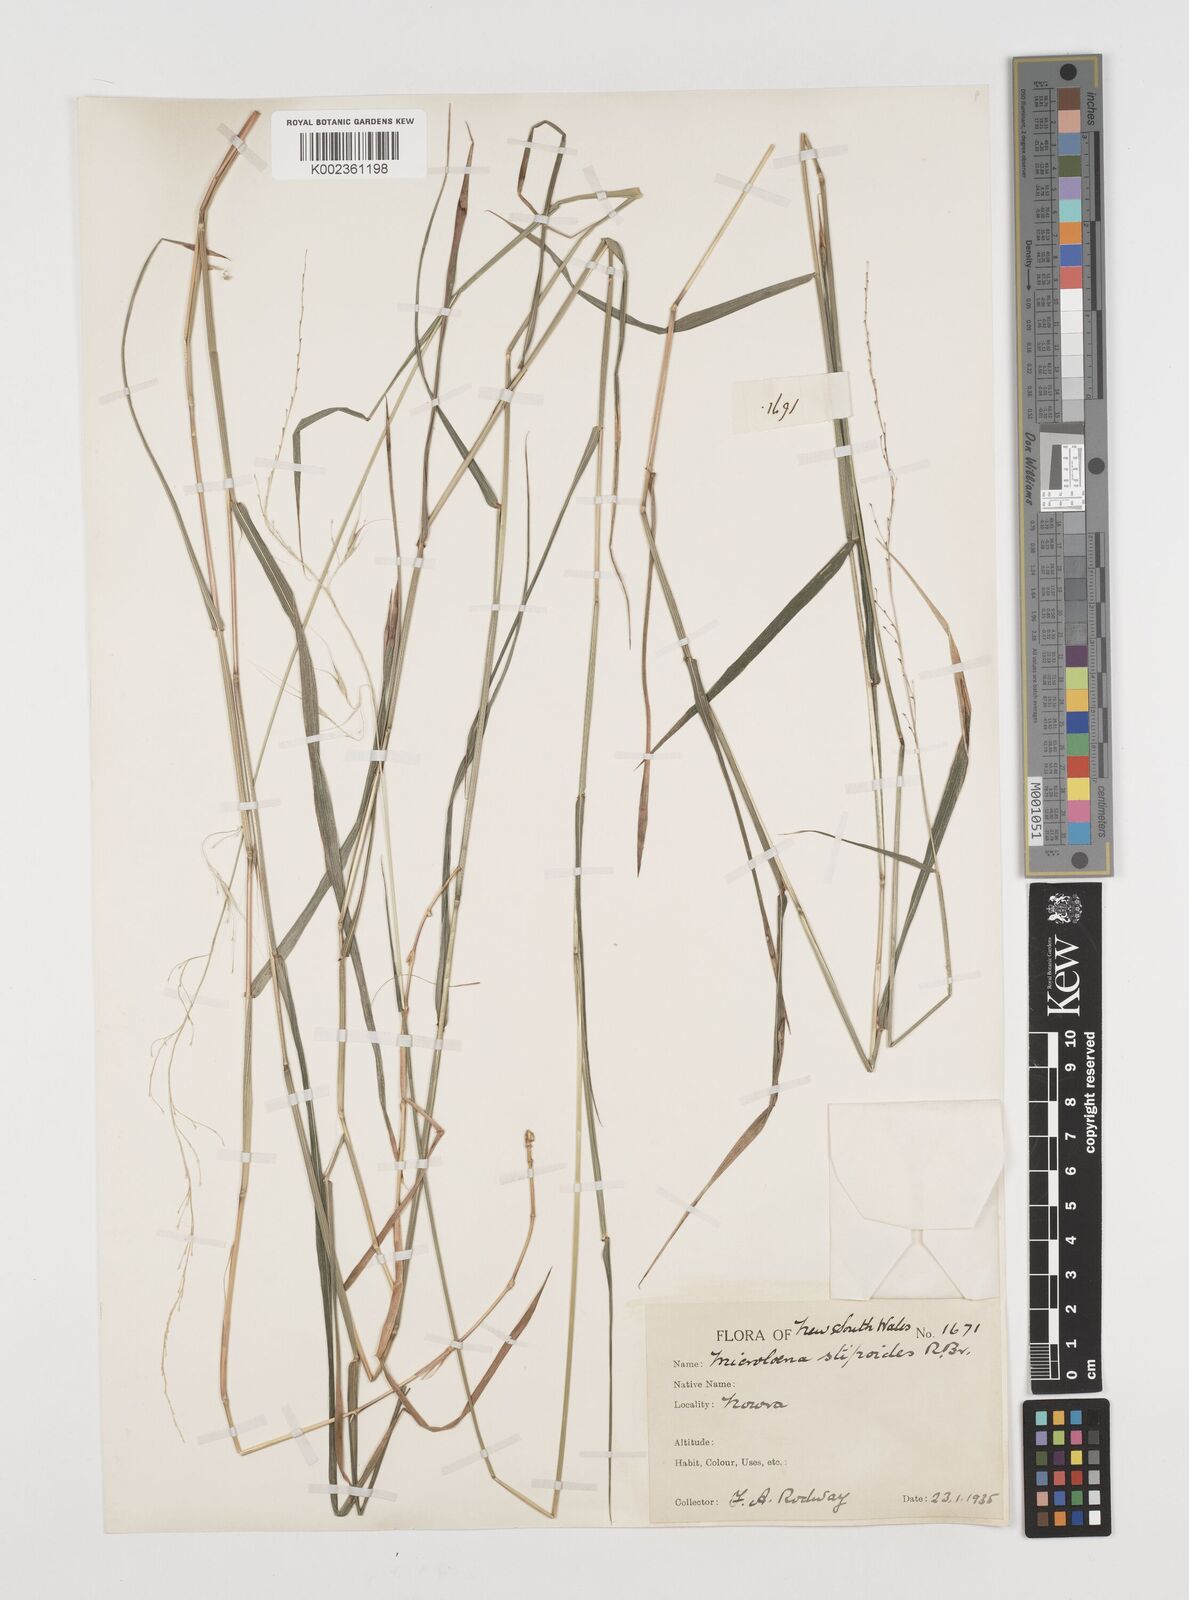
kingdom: Plantae
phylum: Tracheophyta
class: Liliopsida
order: Poales
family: Poaceae
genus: Microlaena
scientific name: Microlaena stipoides
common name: Meadow ricegrass
